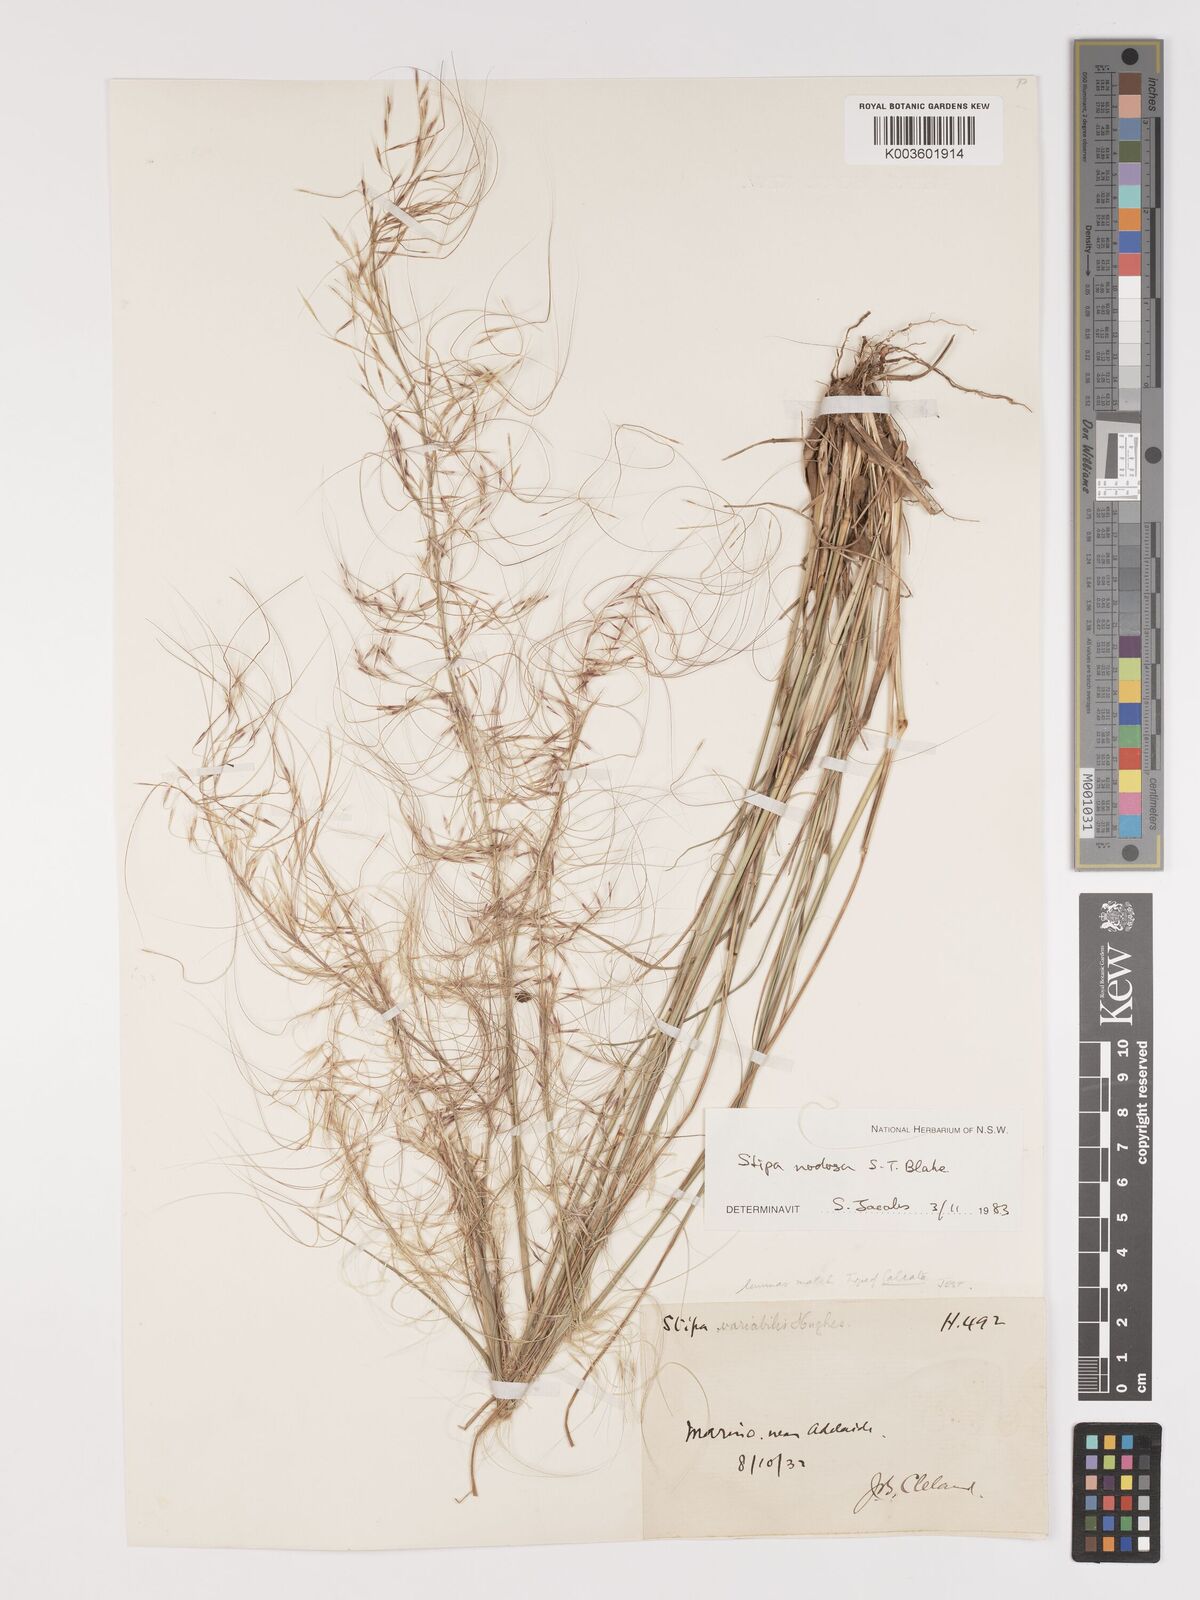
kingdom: Plantae
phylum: Tracheophyta
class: Liliopsida
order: Poales
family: Poaceae
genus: Austrostipa
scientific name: Austrostipa nodosa
